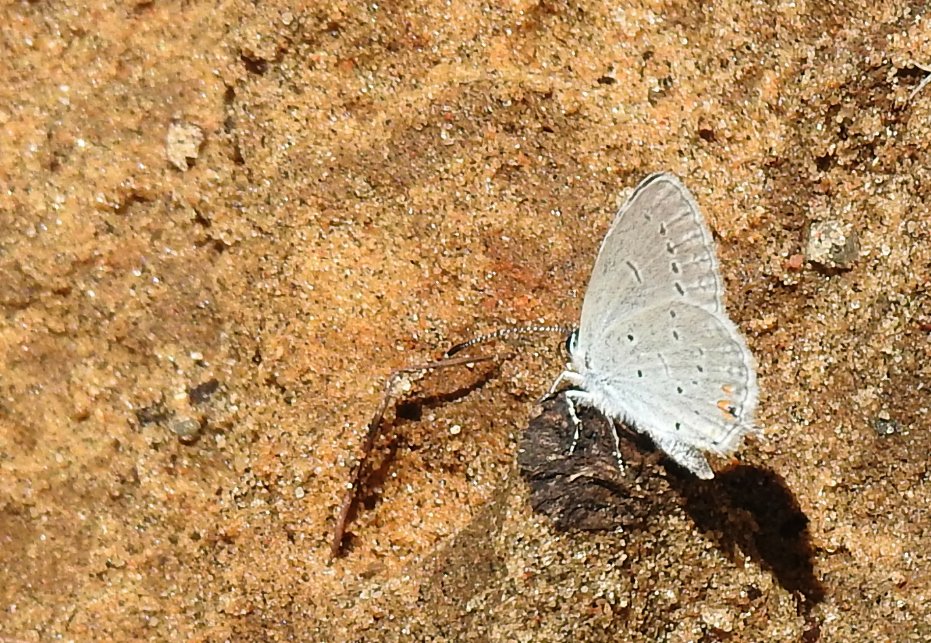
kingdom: Animalia
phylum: Arthropoda
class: Insecta
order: Lepidoptera
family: Lycaenidae
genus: Elkalyce
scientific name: Elkalyce comyntas
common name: Eastern Tailed-Blue
